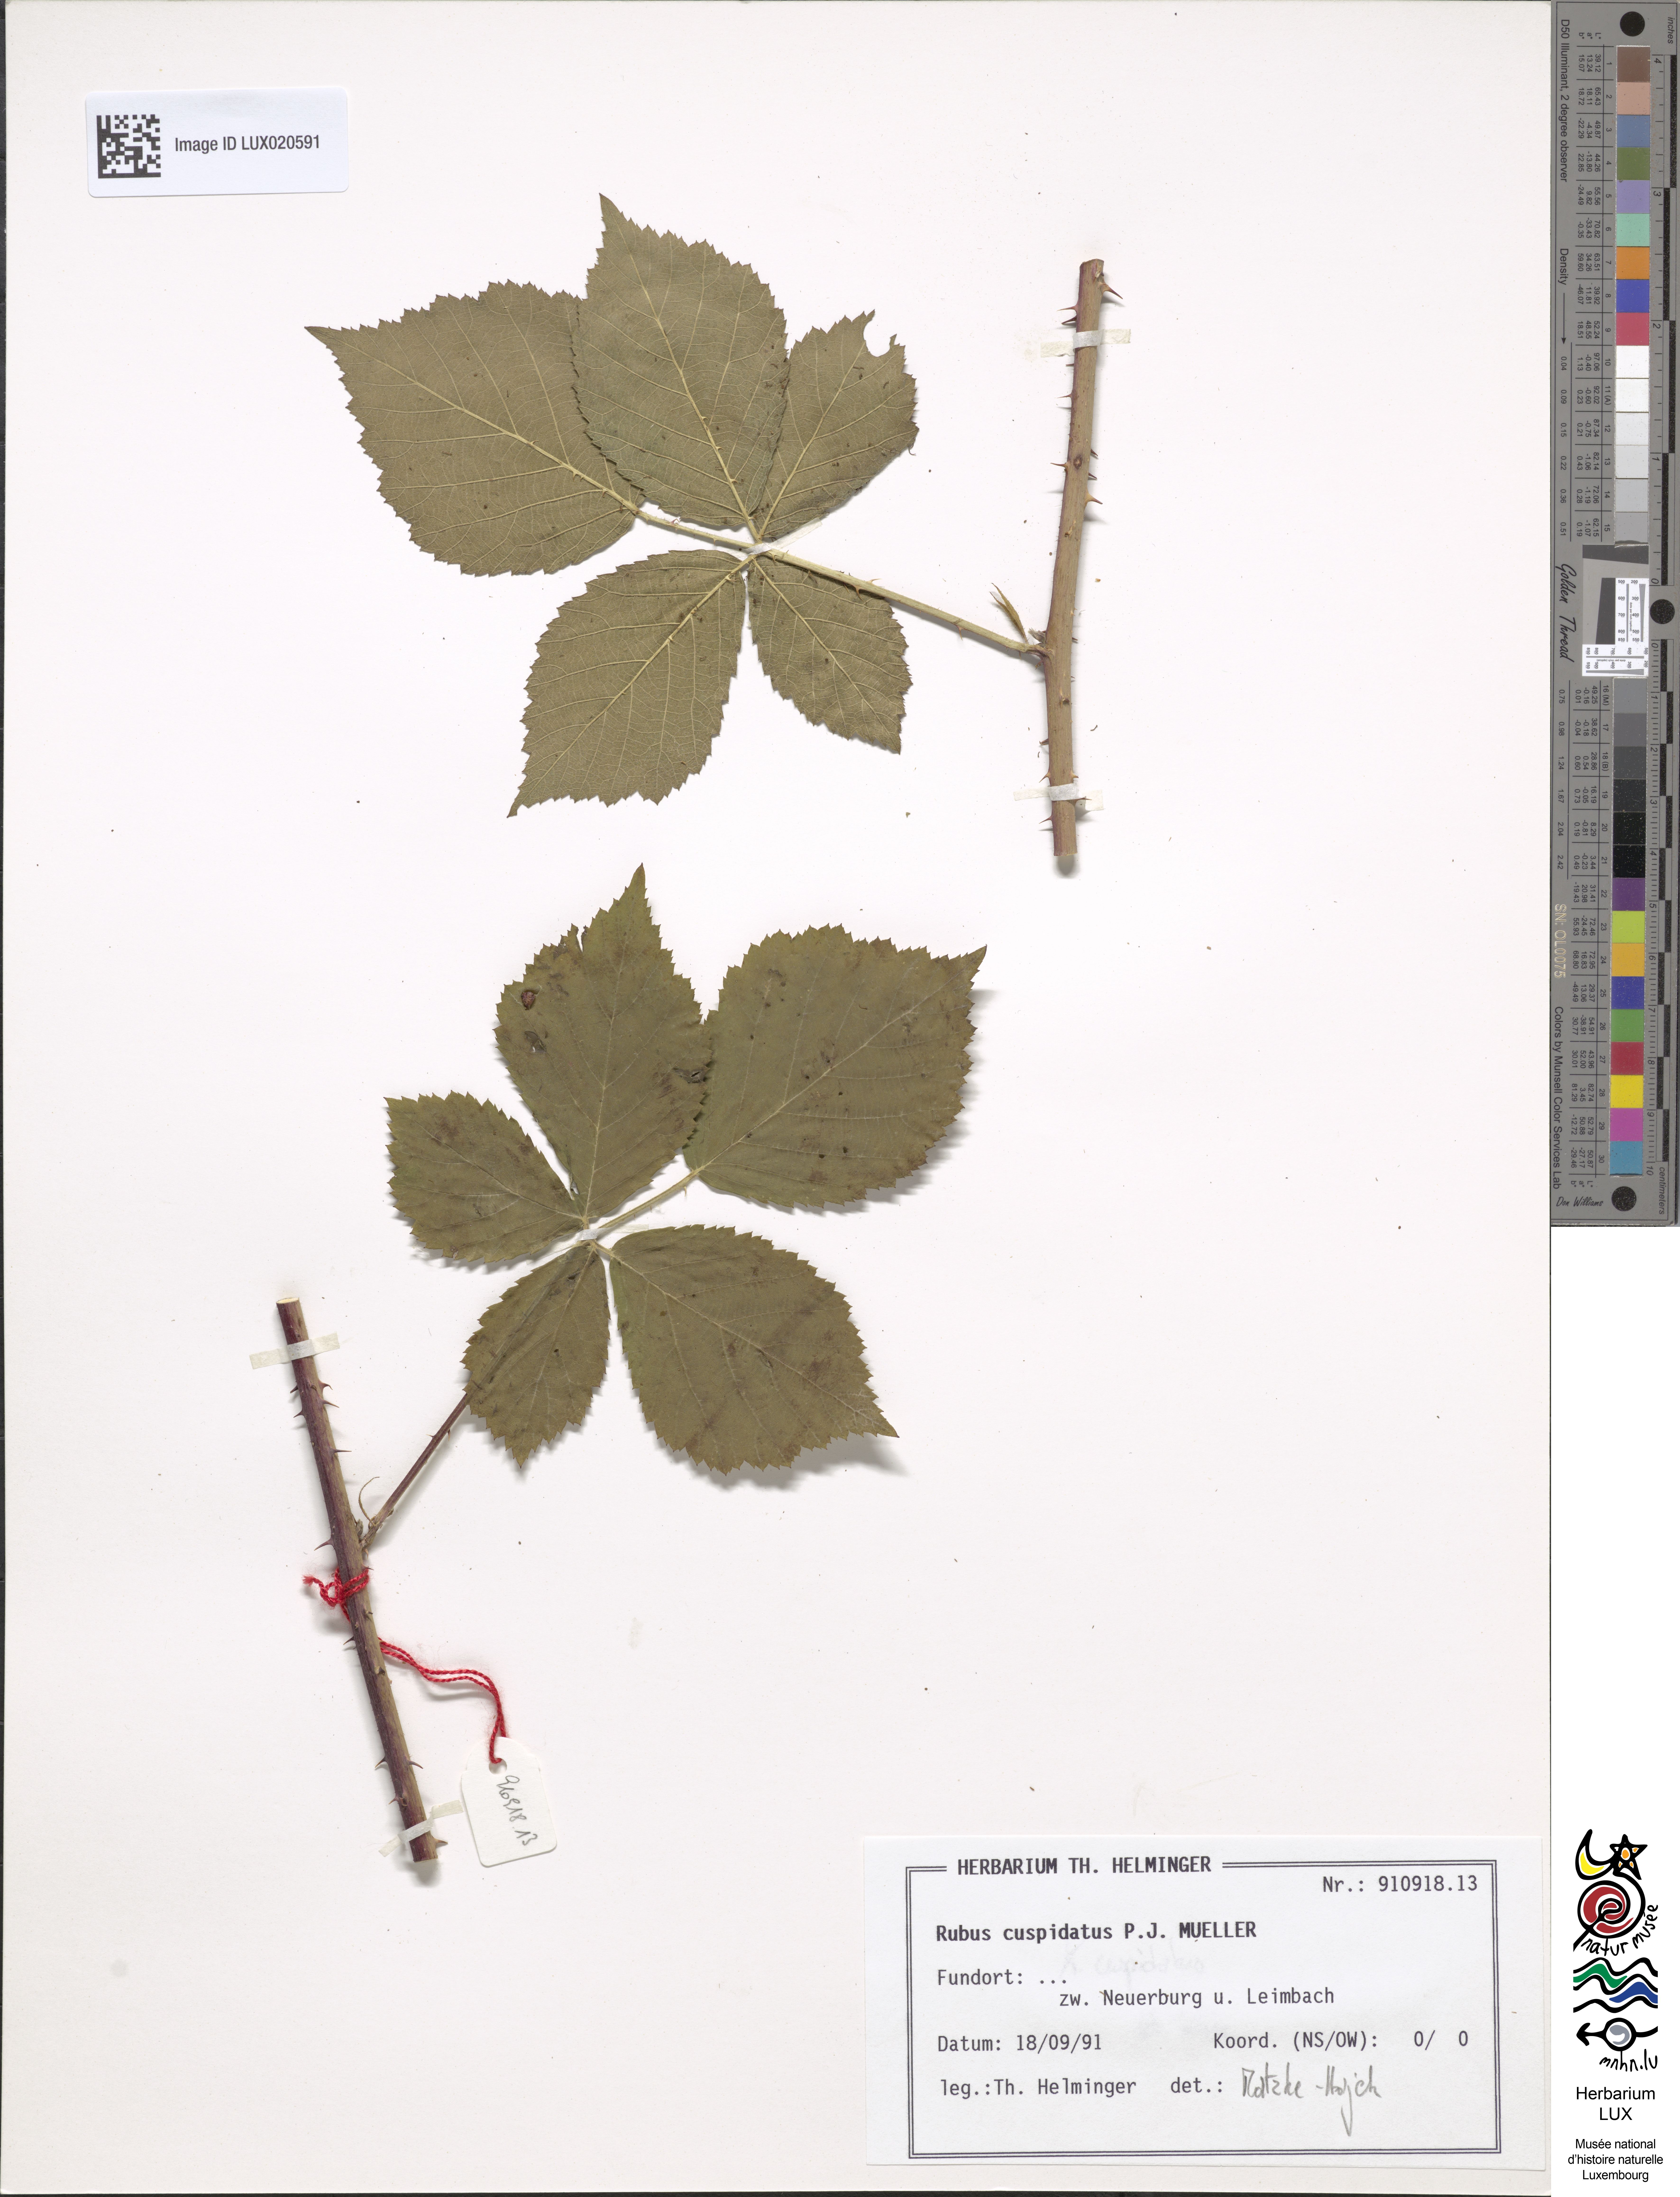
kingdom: Plantae
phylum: Tracheophyta
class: Magnoliopsida
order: Rosales
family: Rosaceae
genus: Rubus
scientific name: Rubus cuspidatus
